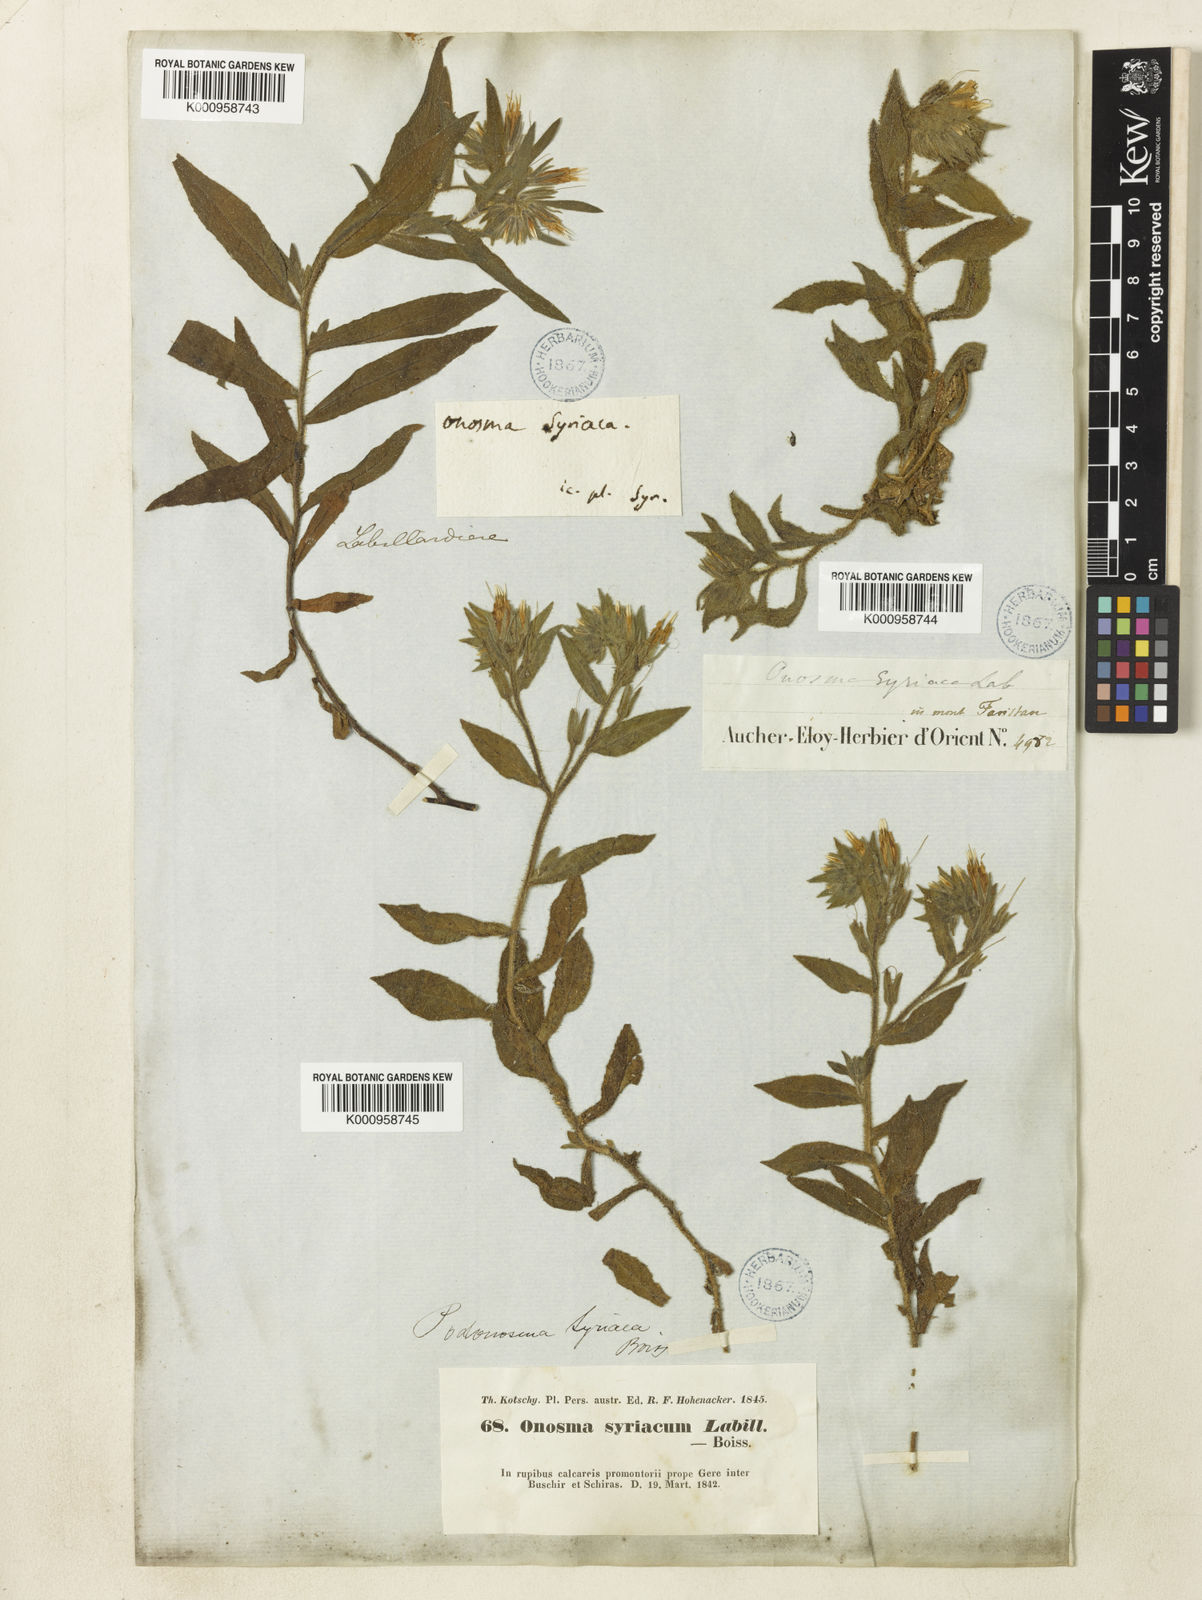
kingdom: Plantae
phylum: Tracheophyta
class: Magnoliopsida
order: Boraginales
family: Boraginaceae
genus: Podonosma
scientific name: Podonosma orientalis
